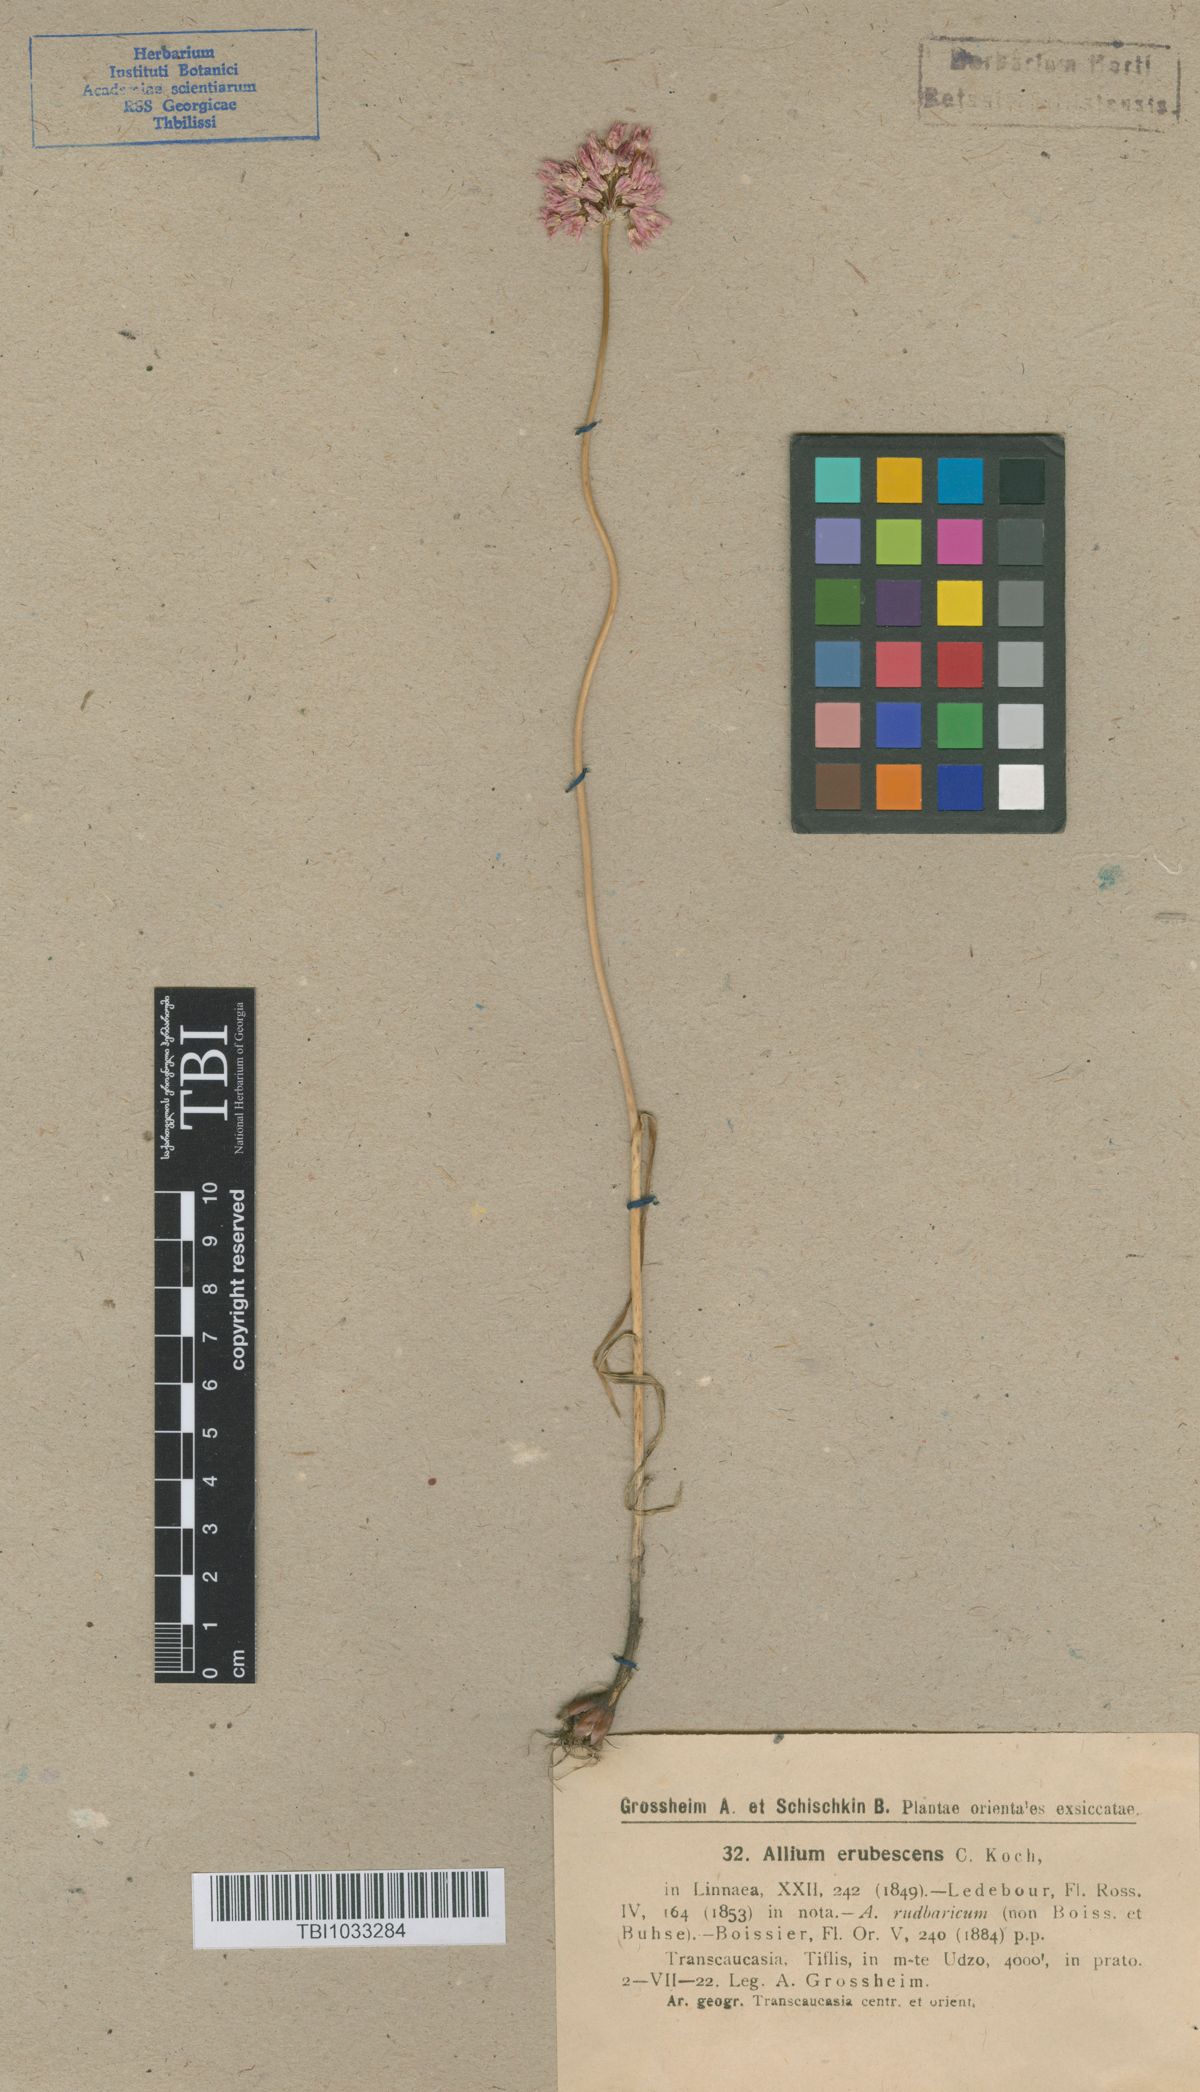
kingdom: Plantae
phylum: Tracheophyta
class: Liliopsida
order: Asparagales
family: Amaryllidaceae
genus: Allium
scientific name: Allium erubescens
